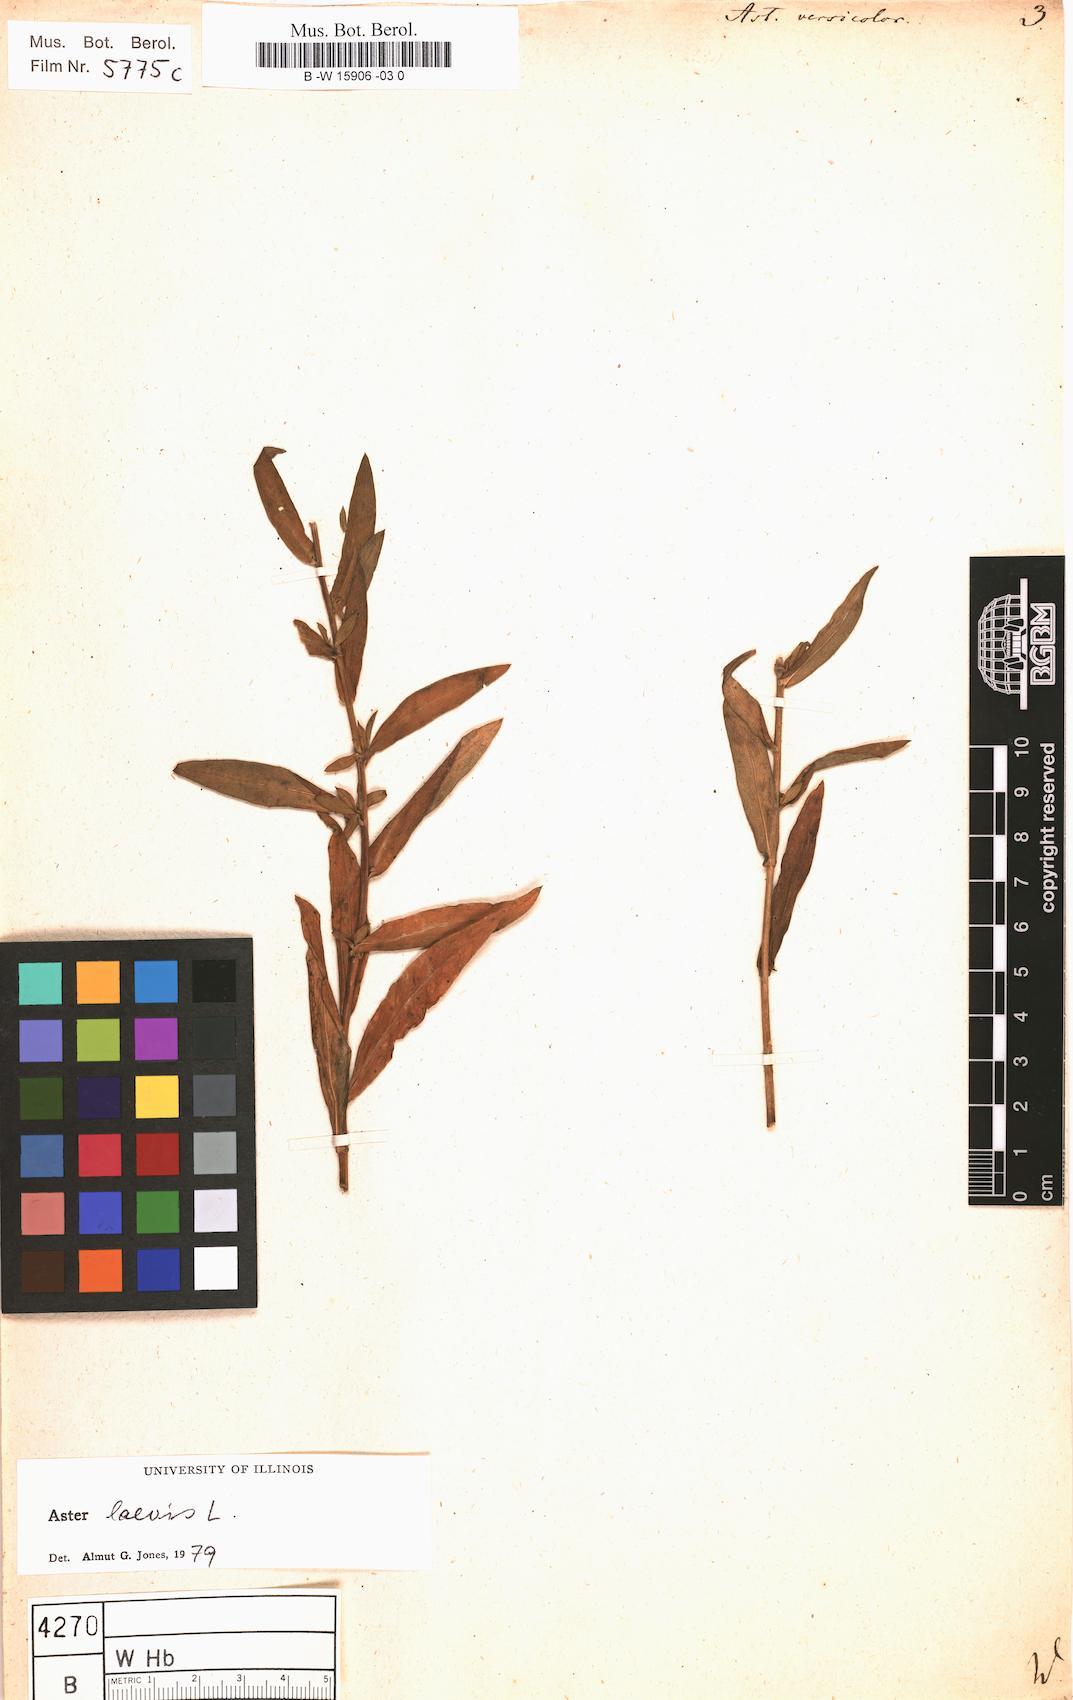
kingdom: Plantae
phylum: Tracheophyta
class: Magnoliopsida
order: Asterales
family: Asteraceae
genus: Aster
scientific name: Aster versicolor
